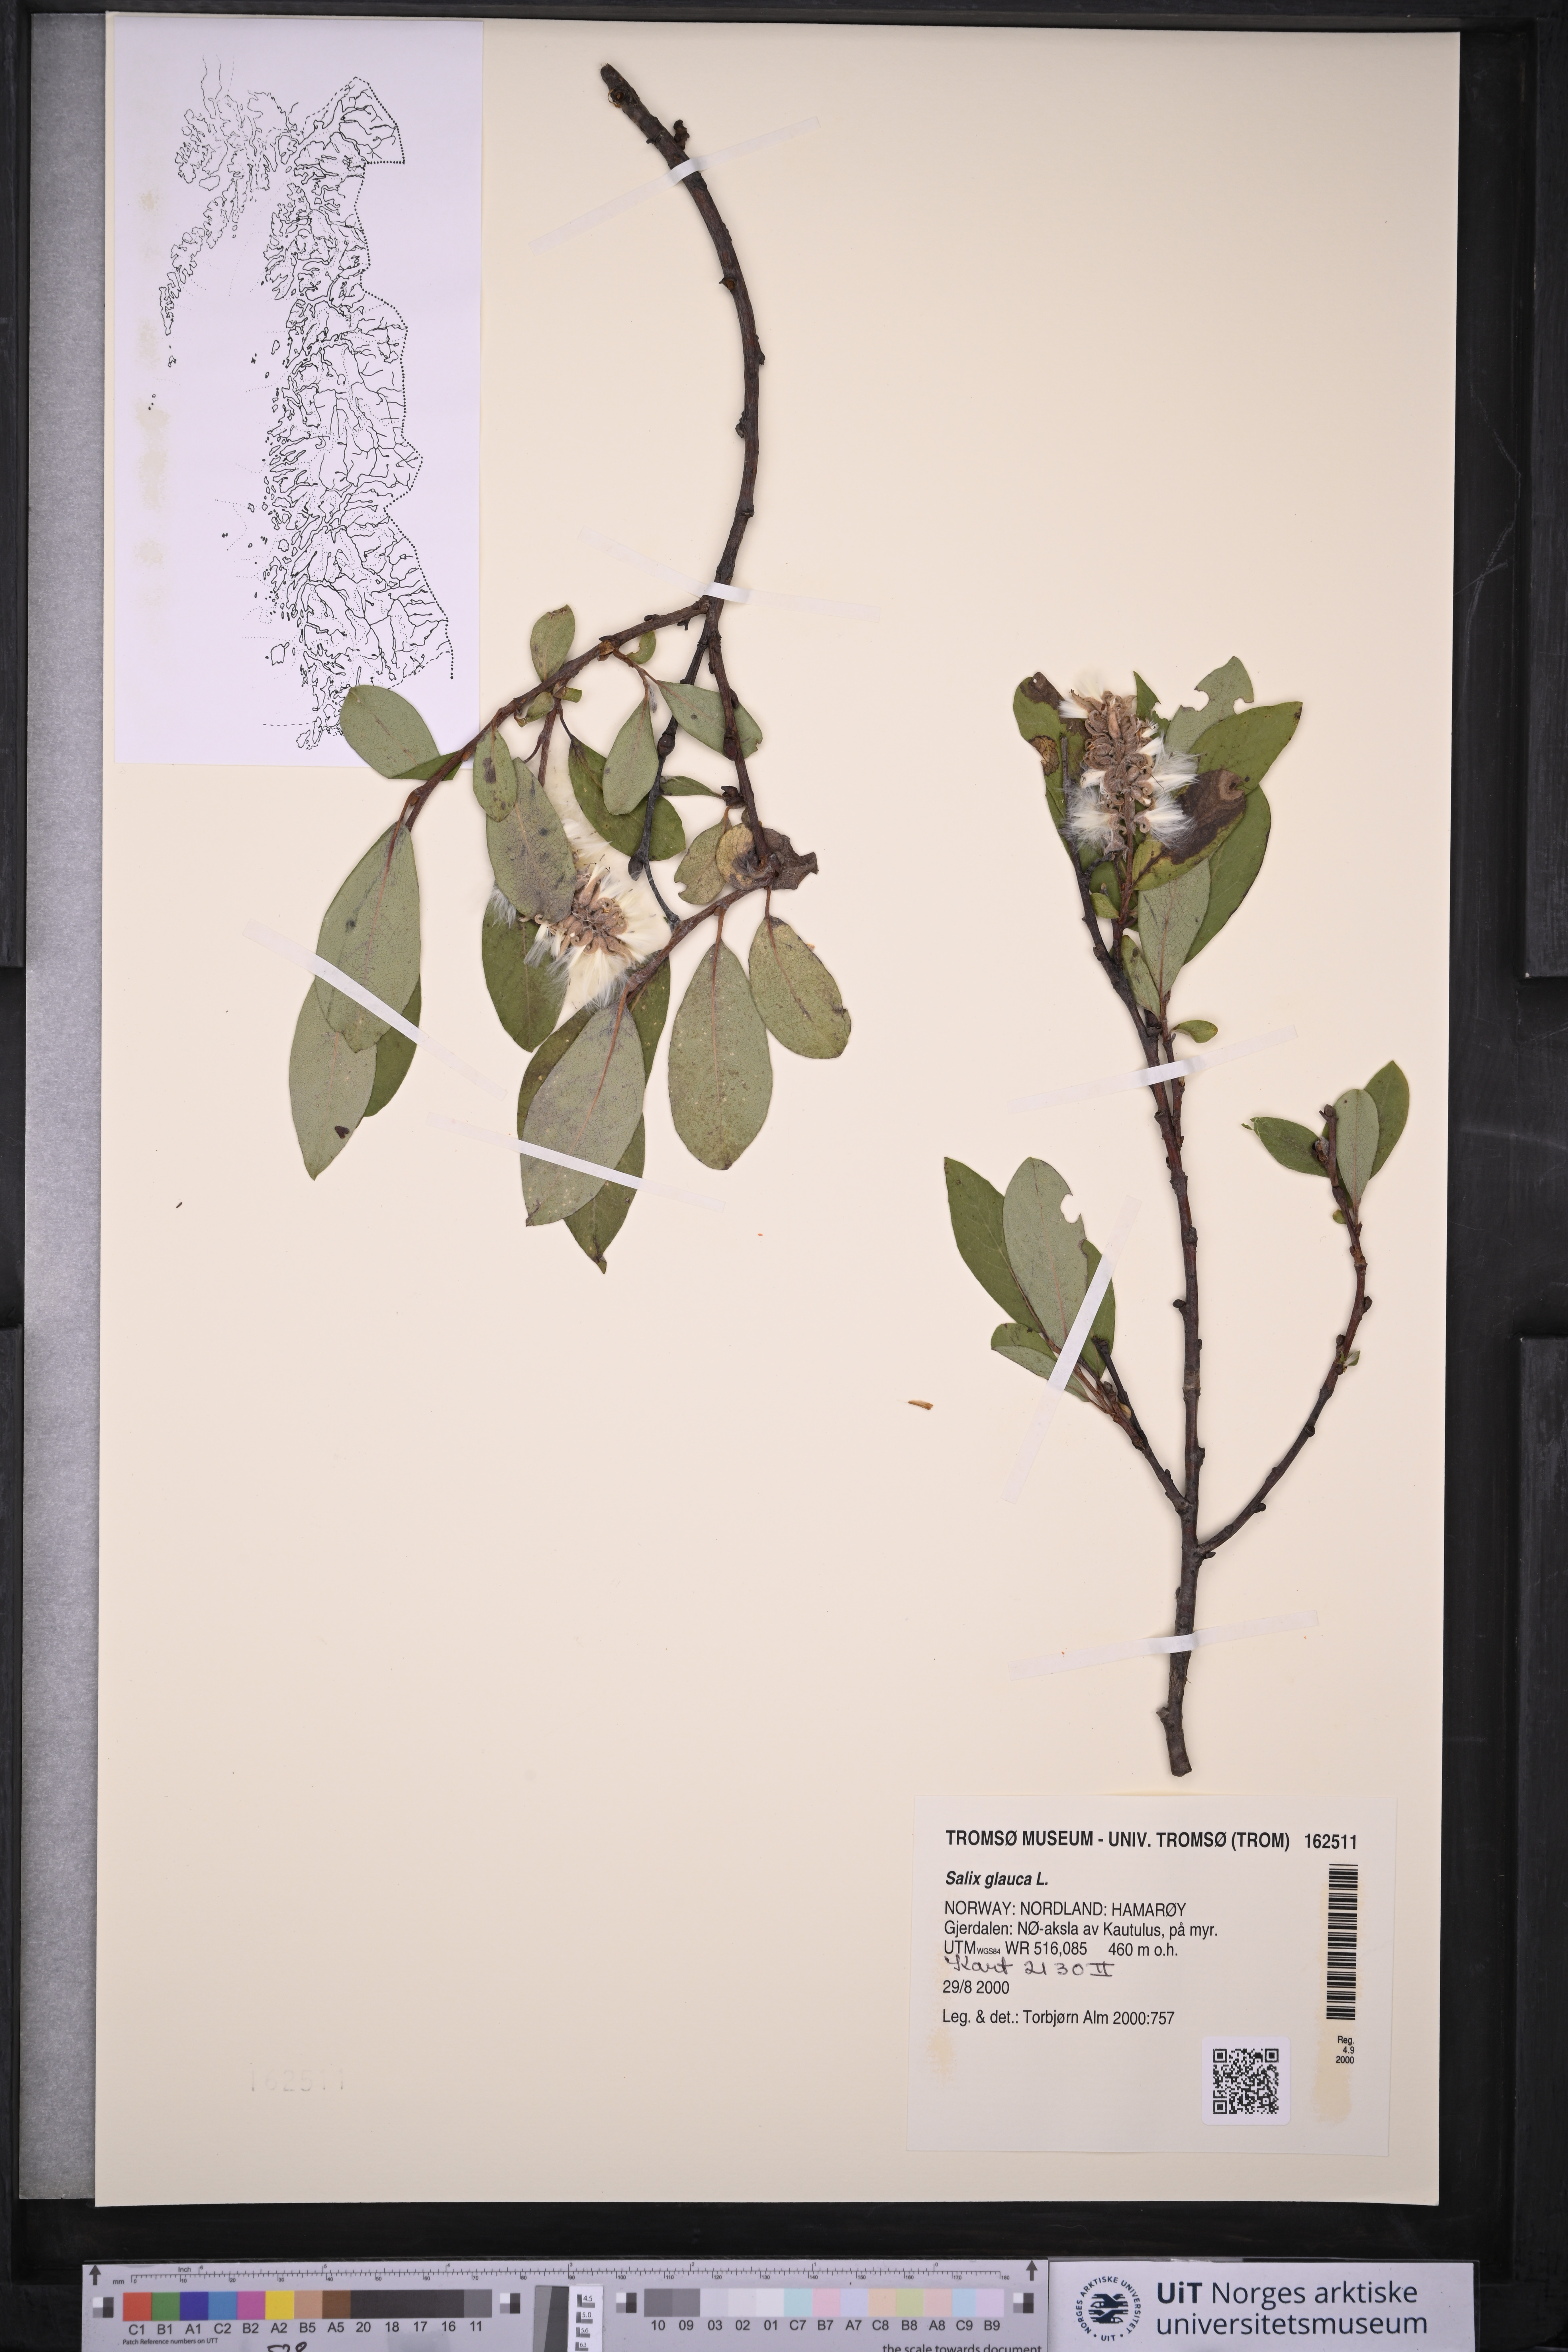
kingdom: Plantae
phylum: Tracheophyta
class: Magnoliopsida
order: Malpighiales
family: Salicaceae
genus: Salix
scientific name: Salix glauca
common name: Glaucous willow
